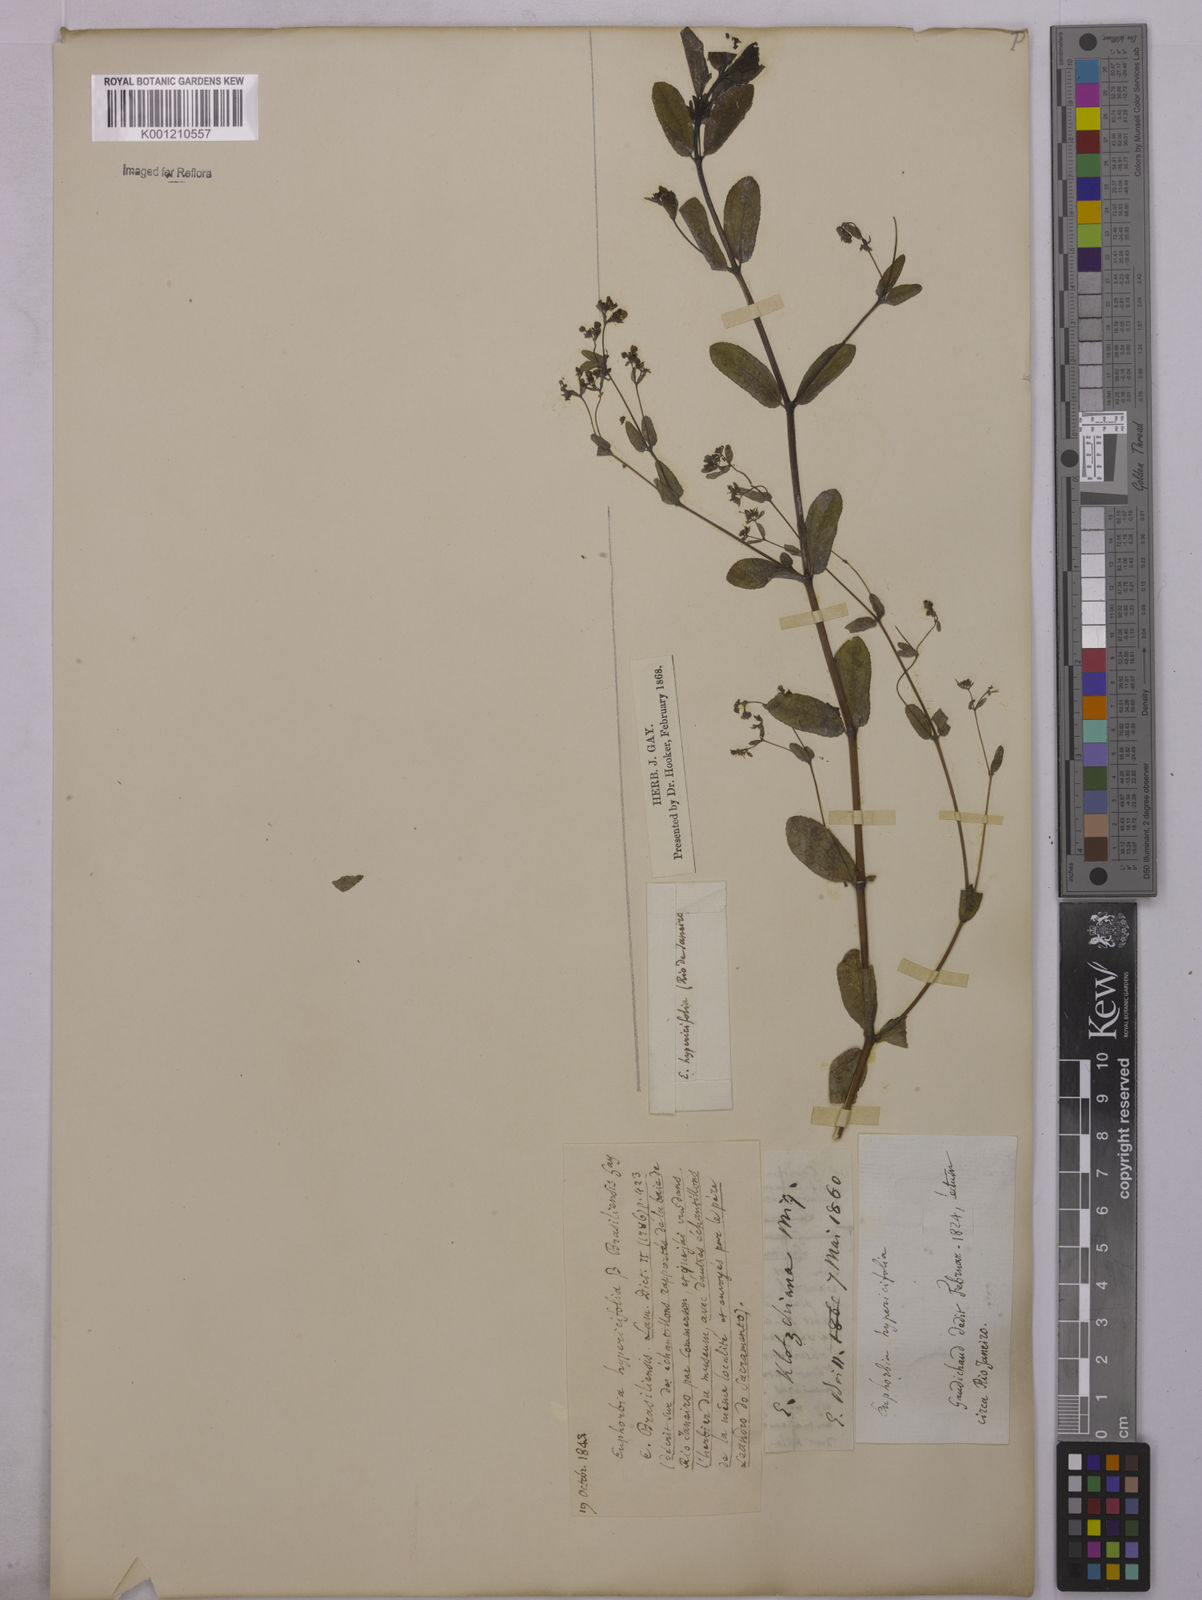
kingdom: Plantae
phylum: Tracheophyta
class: Magnoliopsida
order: Malpighiales
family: Euphorbiaceae
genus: Euphorbia
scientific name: Euphorbia hyssopifolia
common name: Hyssopleaf sandmat
